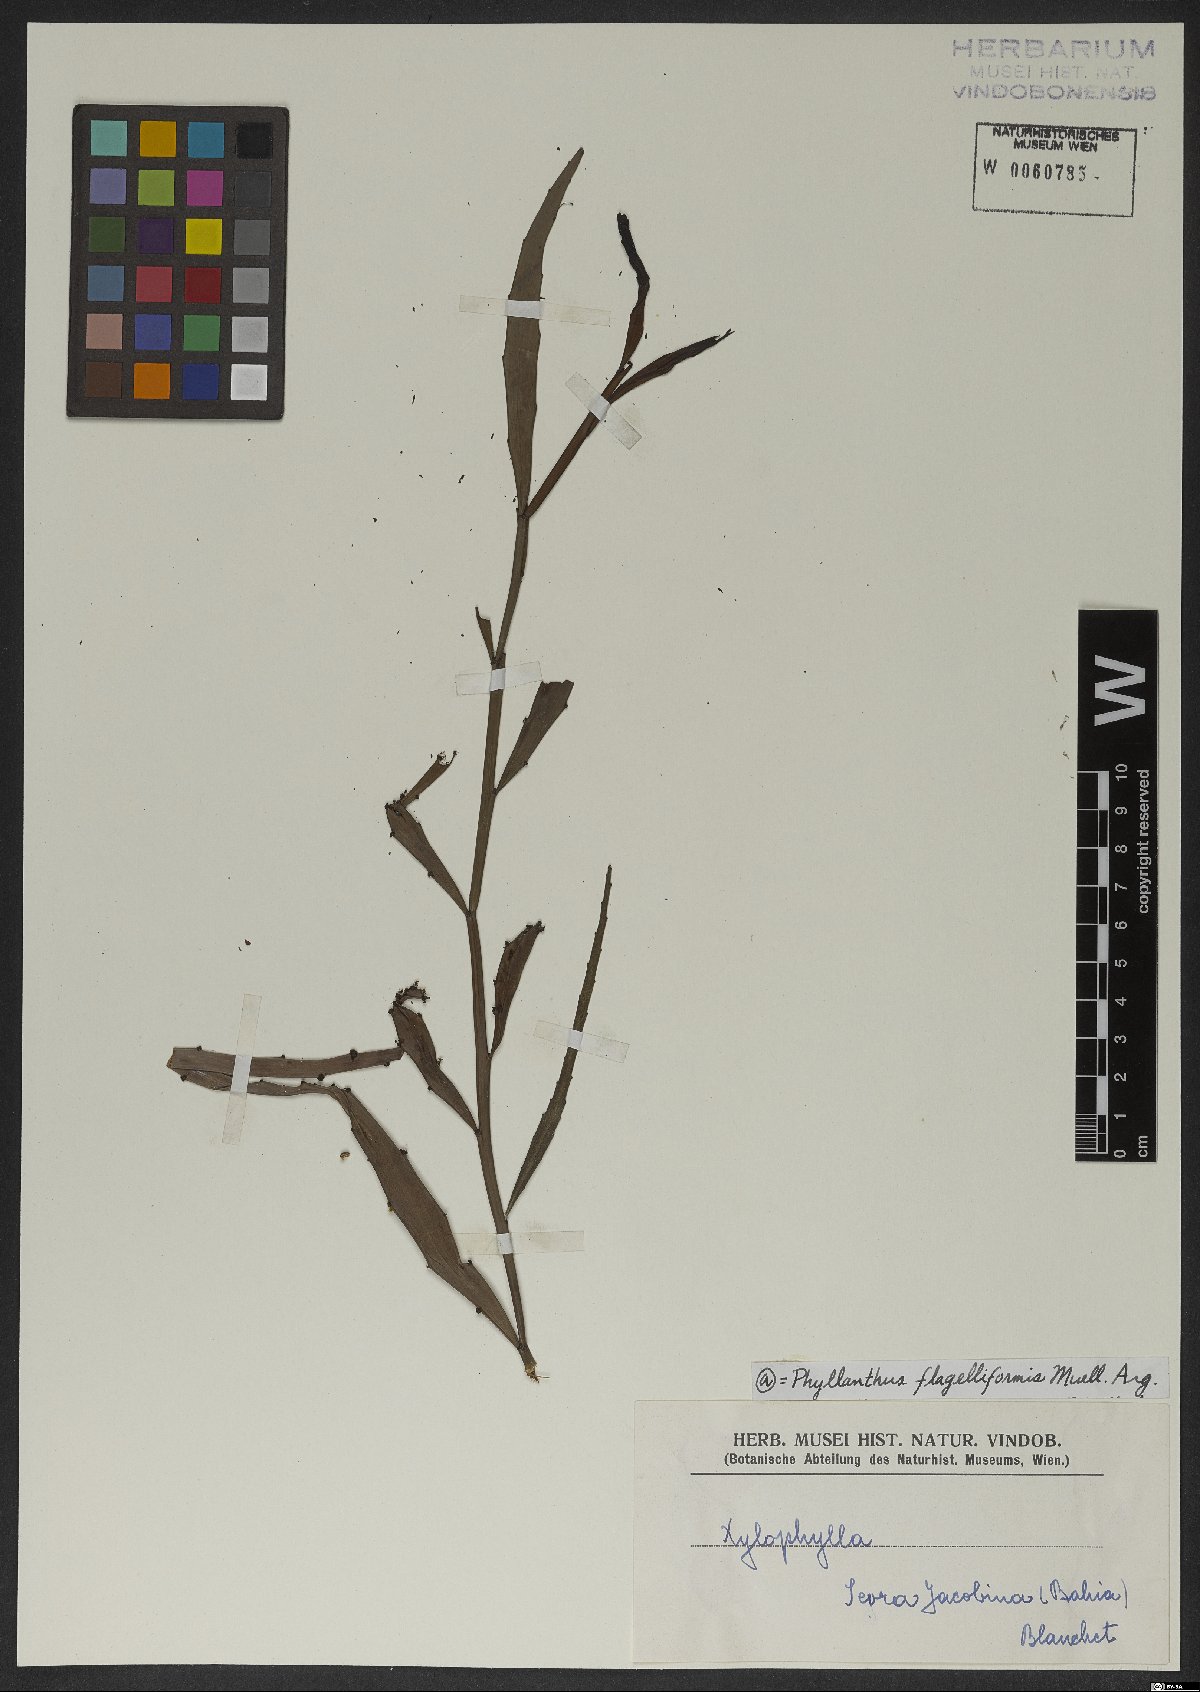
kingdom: Plantae
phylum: Tracheophyta
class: Magnoliopsida
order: Malpighiales
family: Phyllanthaceae
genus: Phyllanthus
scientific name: Phyllanthus eurisladro
